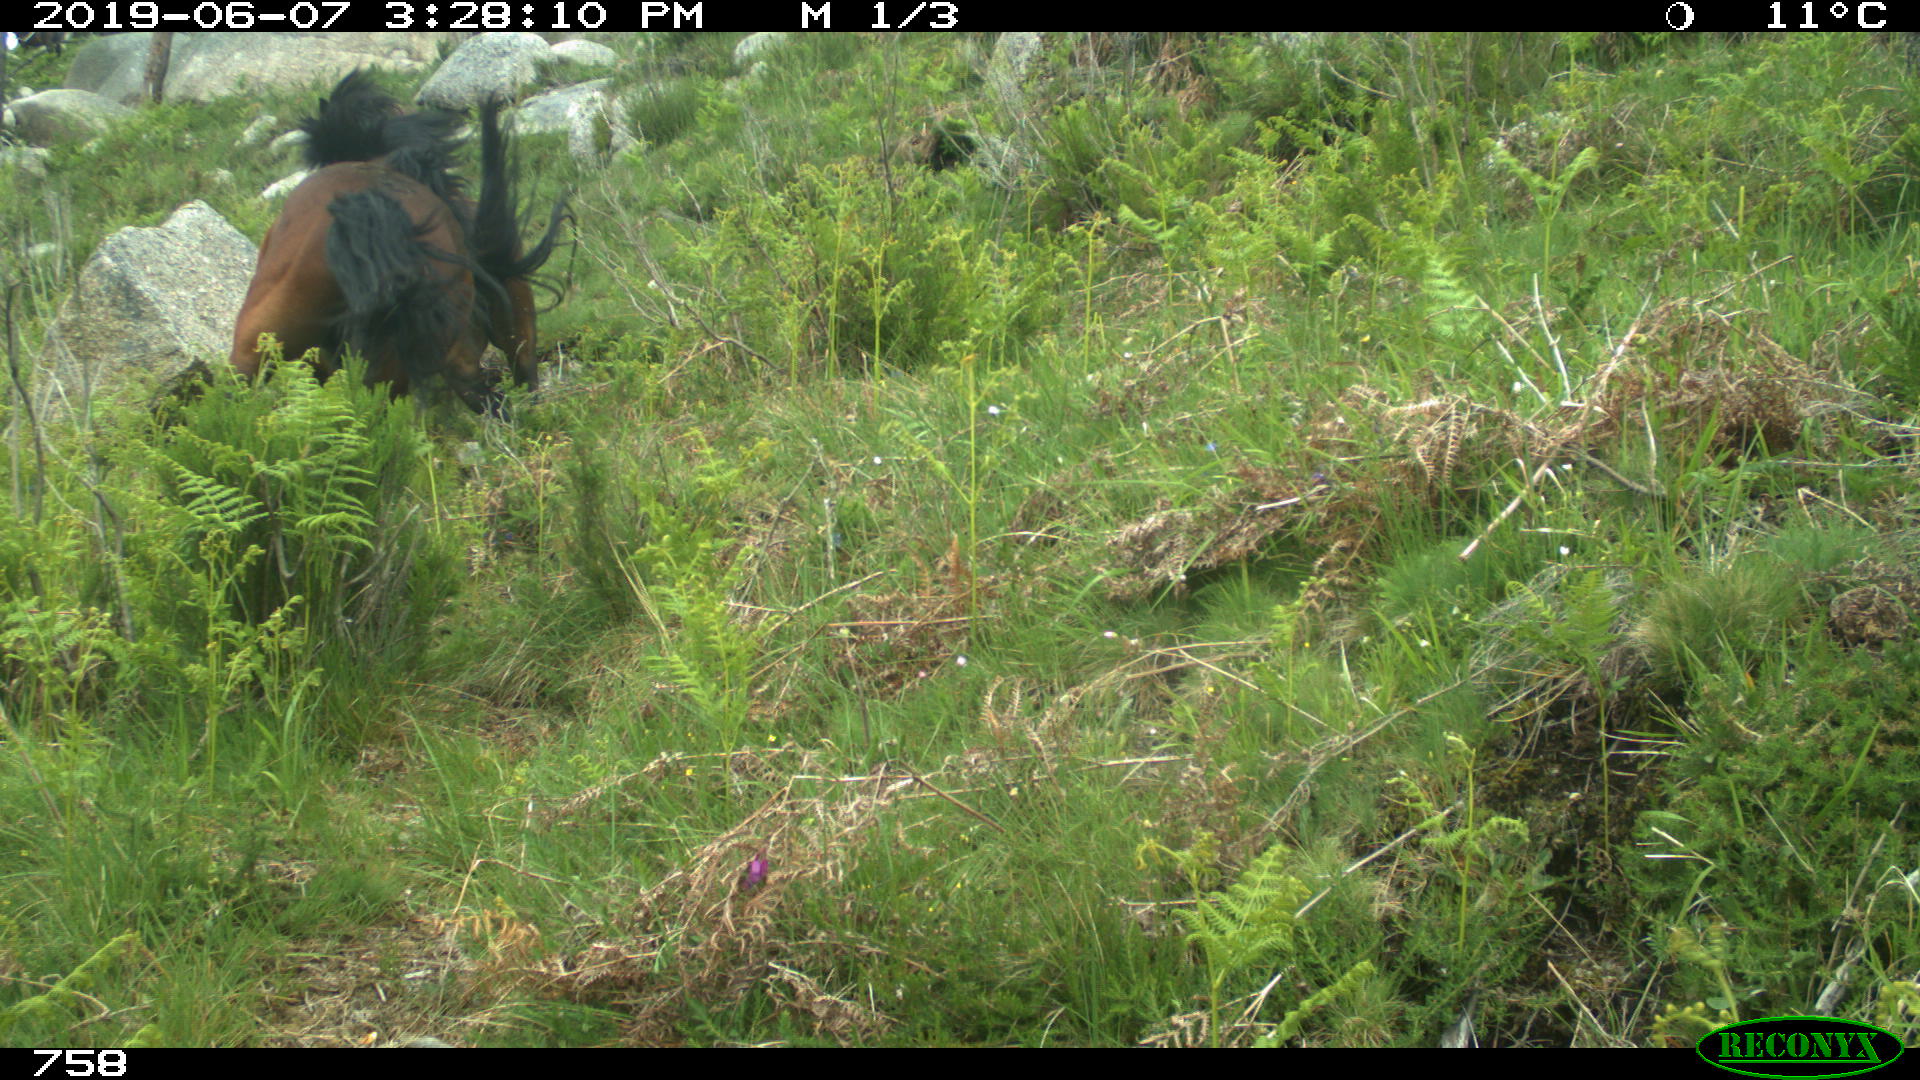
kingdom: Animalia
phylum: Chordata
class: Mammalia
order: Perissodactyla
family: Equidae
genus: Equus
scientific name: Equus caballus
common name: Horse
